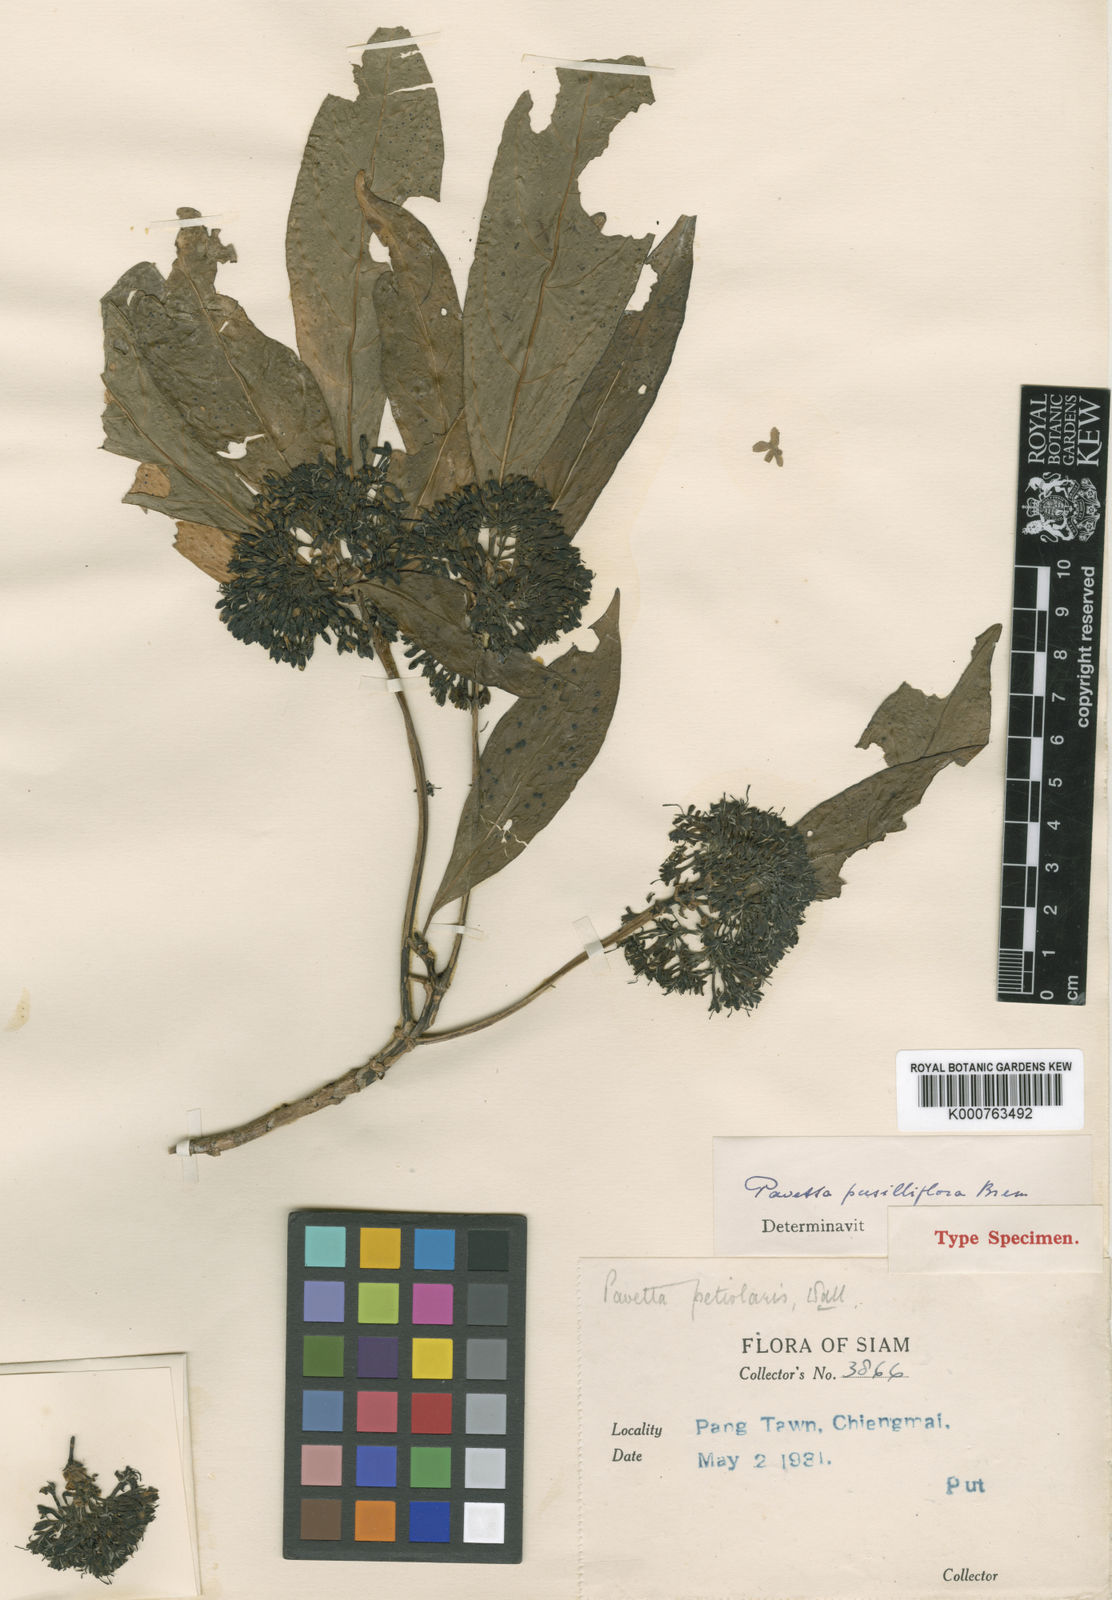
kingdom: Plantae
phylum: Tracheophyta
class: Magnoliopsida
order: Gentianales
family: Rubiaceae
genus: Pavetta
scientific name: Pavetta petiolaris
